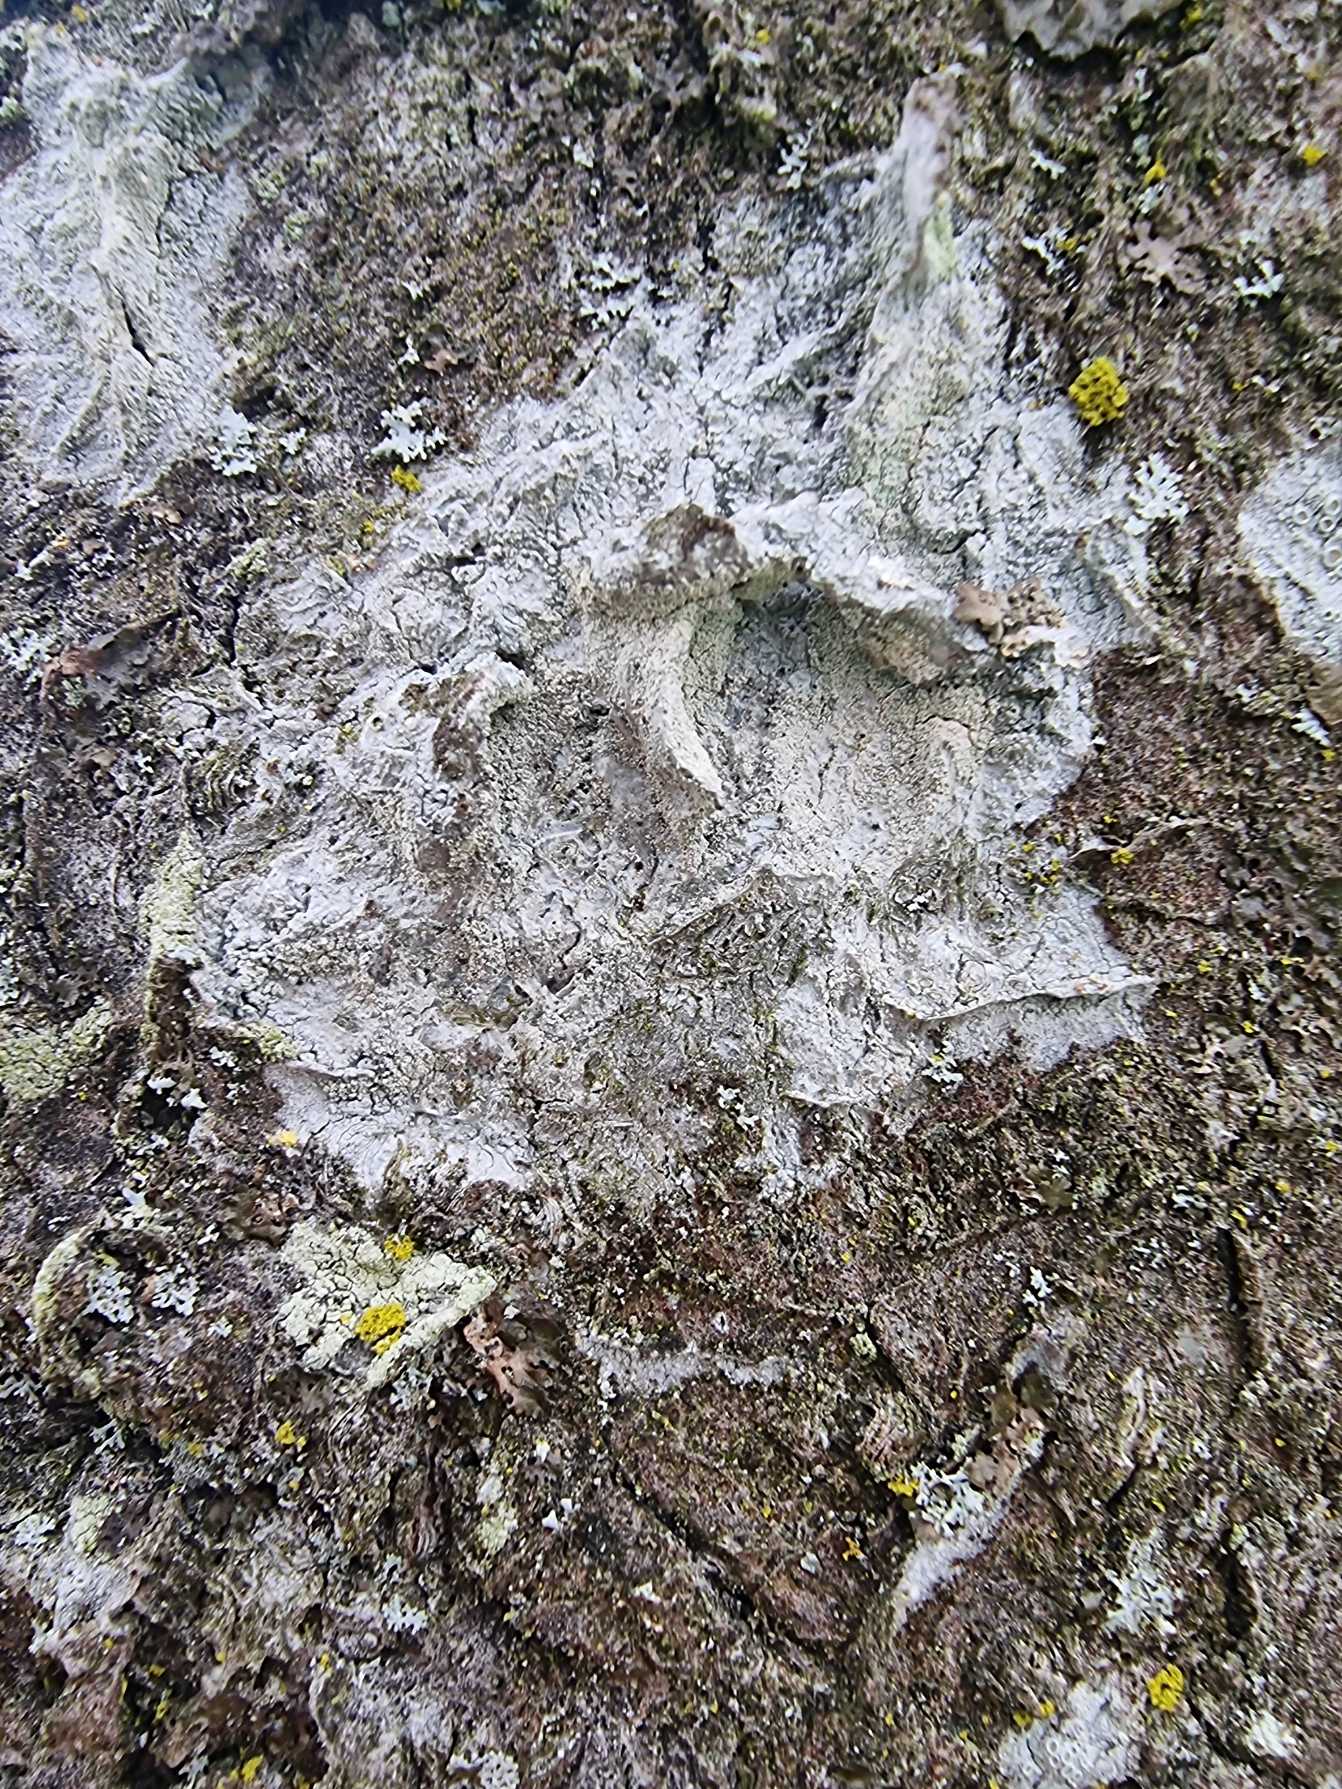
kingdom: Fungi
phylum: Ascomycota
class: Lecanoromycetes
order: Ostropales
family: Phlyctidaceae
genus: Phlyctis
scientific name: Phlyctis argena
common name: Almindelig sølvlav
